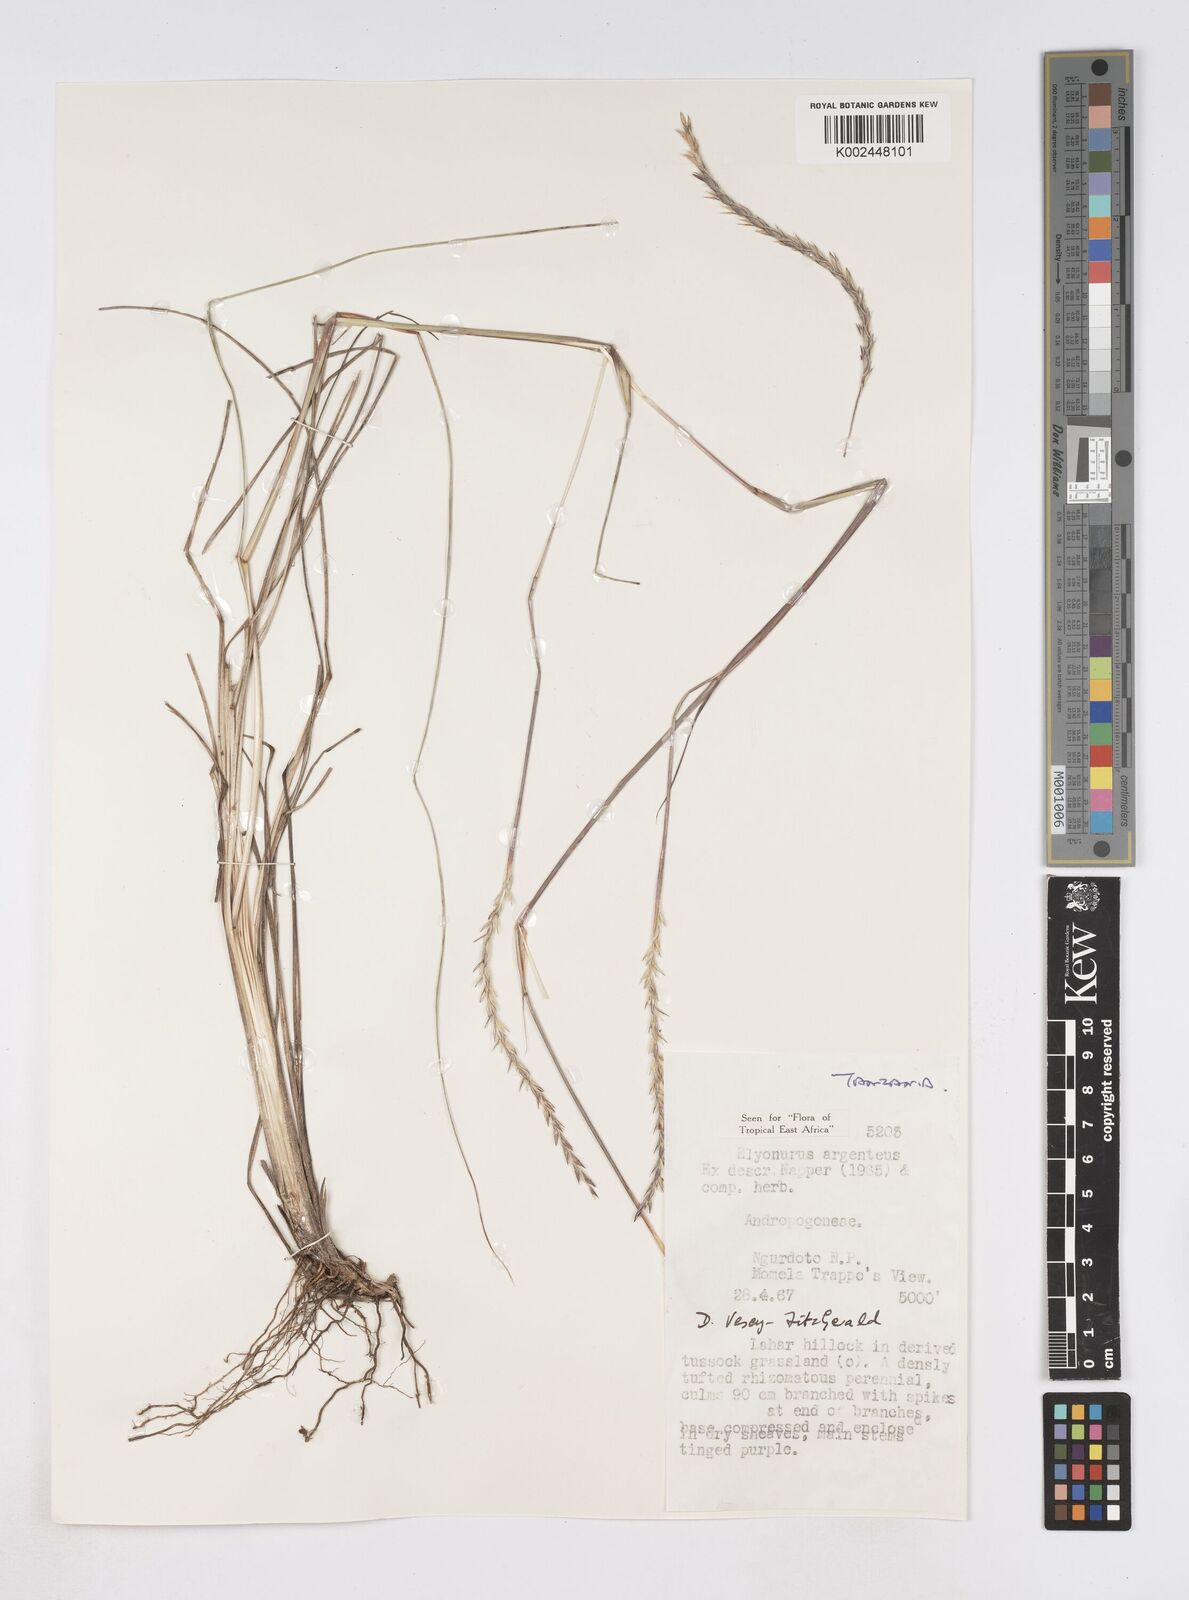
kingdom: Plantae
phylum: Tracheophyta
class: Liliopsida
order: Poales
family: Poaceae
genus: Elionurus
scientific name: Elionurus muticus
